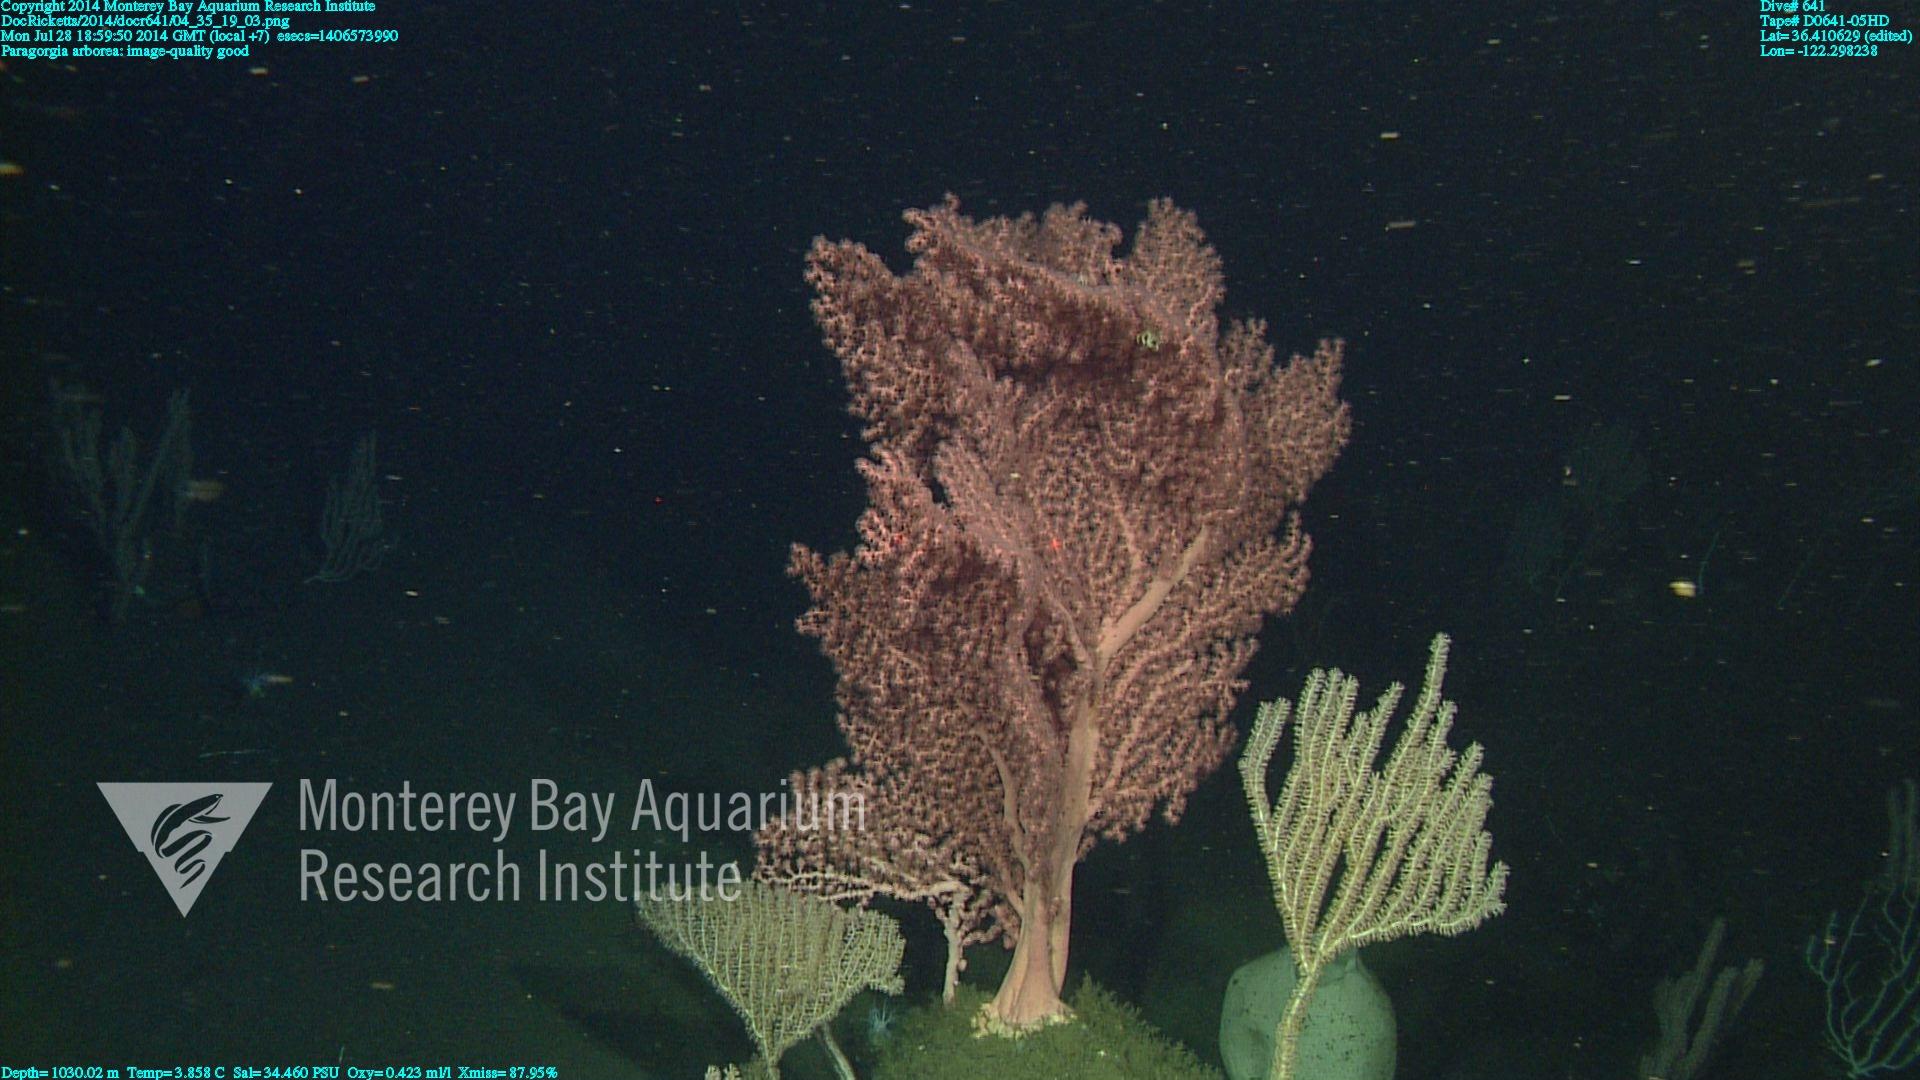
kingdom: Animalia
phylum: Cnidaria
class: Anthozoa
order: Scleralcyonacea
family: Coralliidae
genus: Paragorgia
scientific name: Paragorgia arborea
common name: Bubble gum coral
